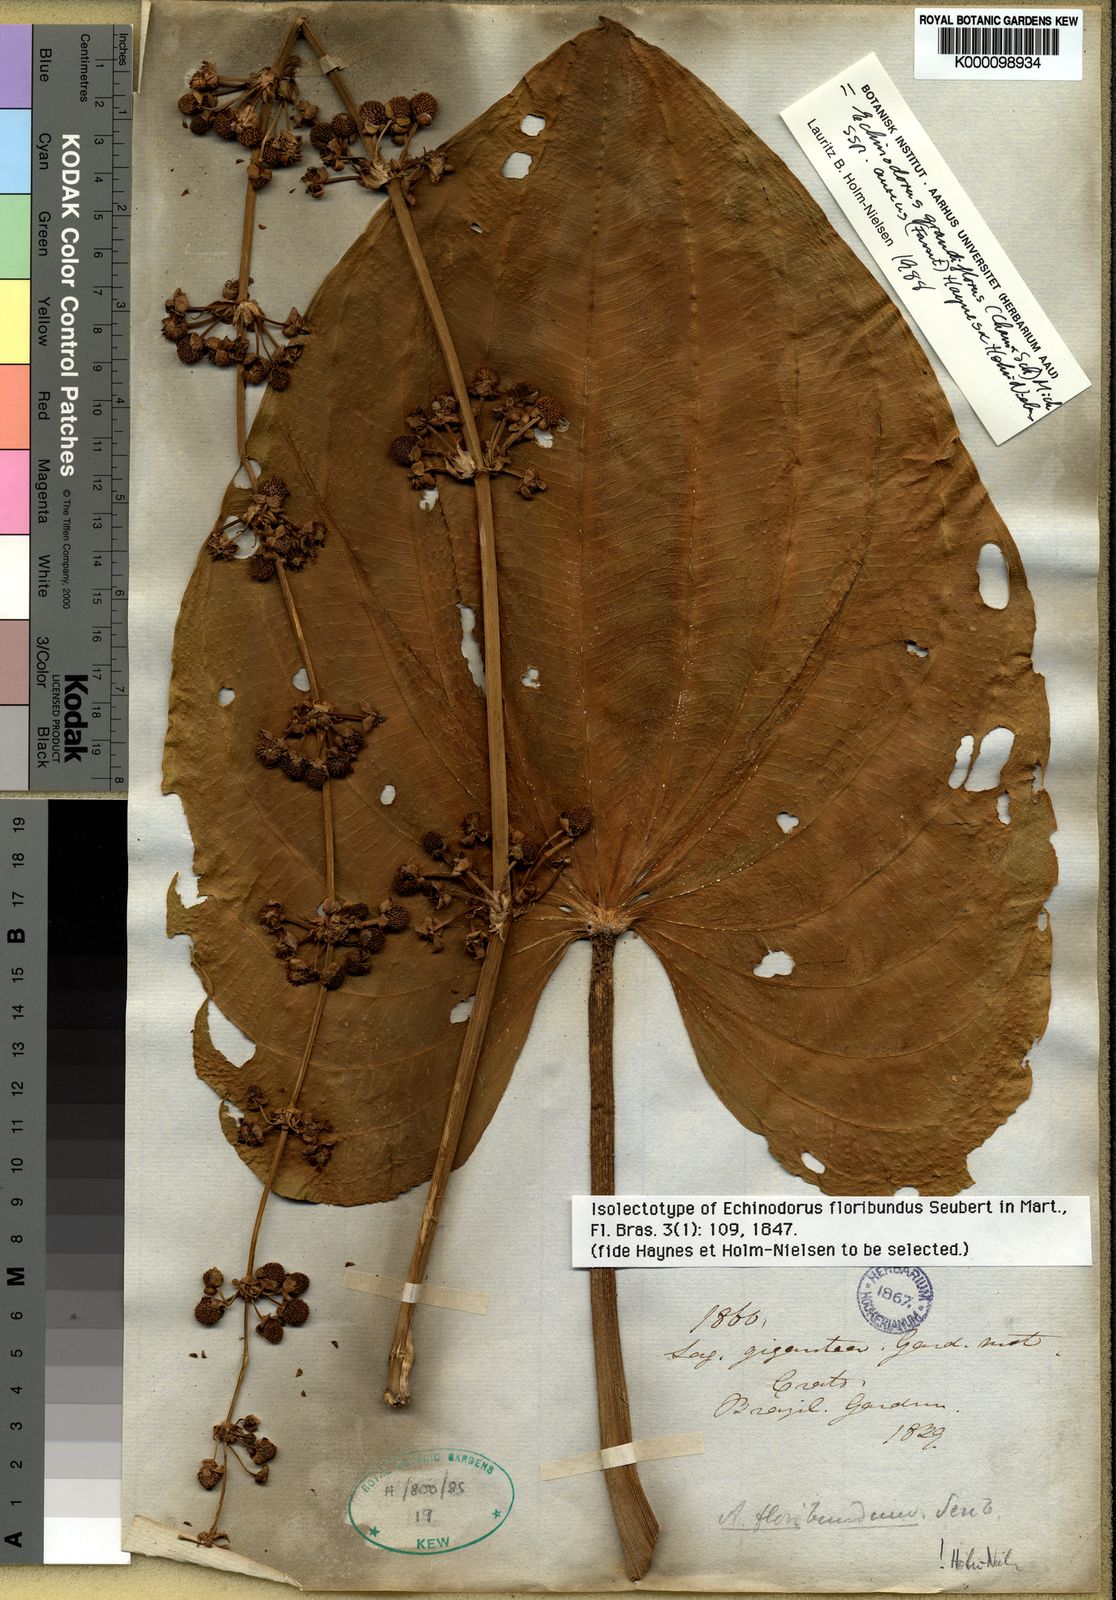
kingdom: Plantae
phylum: Tracheophyta
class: Liliopsida
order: Alismatales
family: Alismataceae
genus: Aquarius
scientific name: Aquarius floribundus
